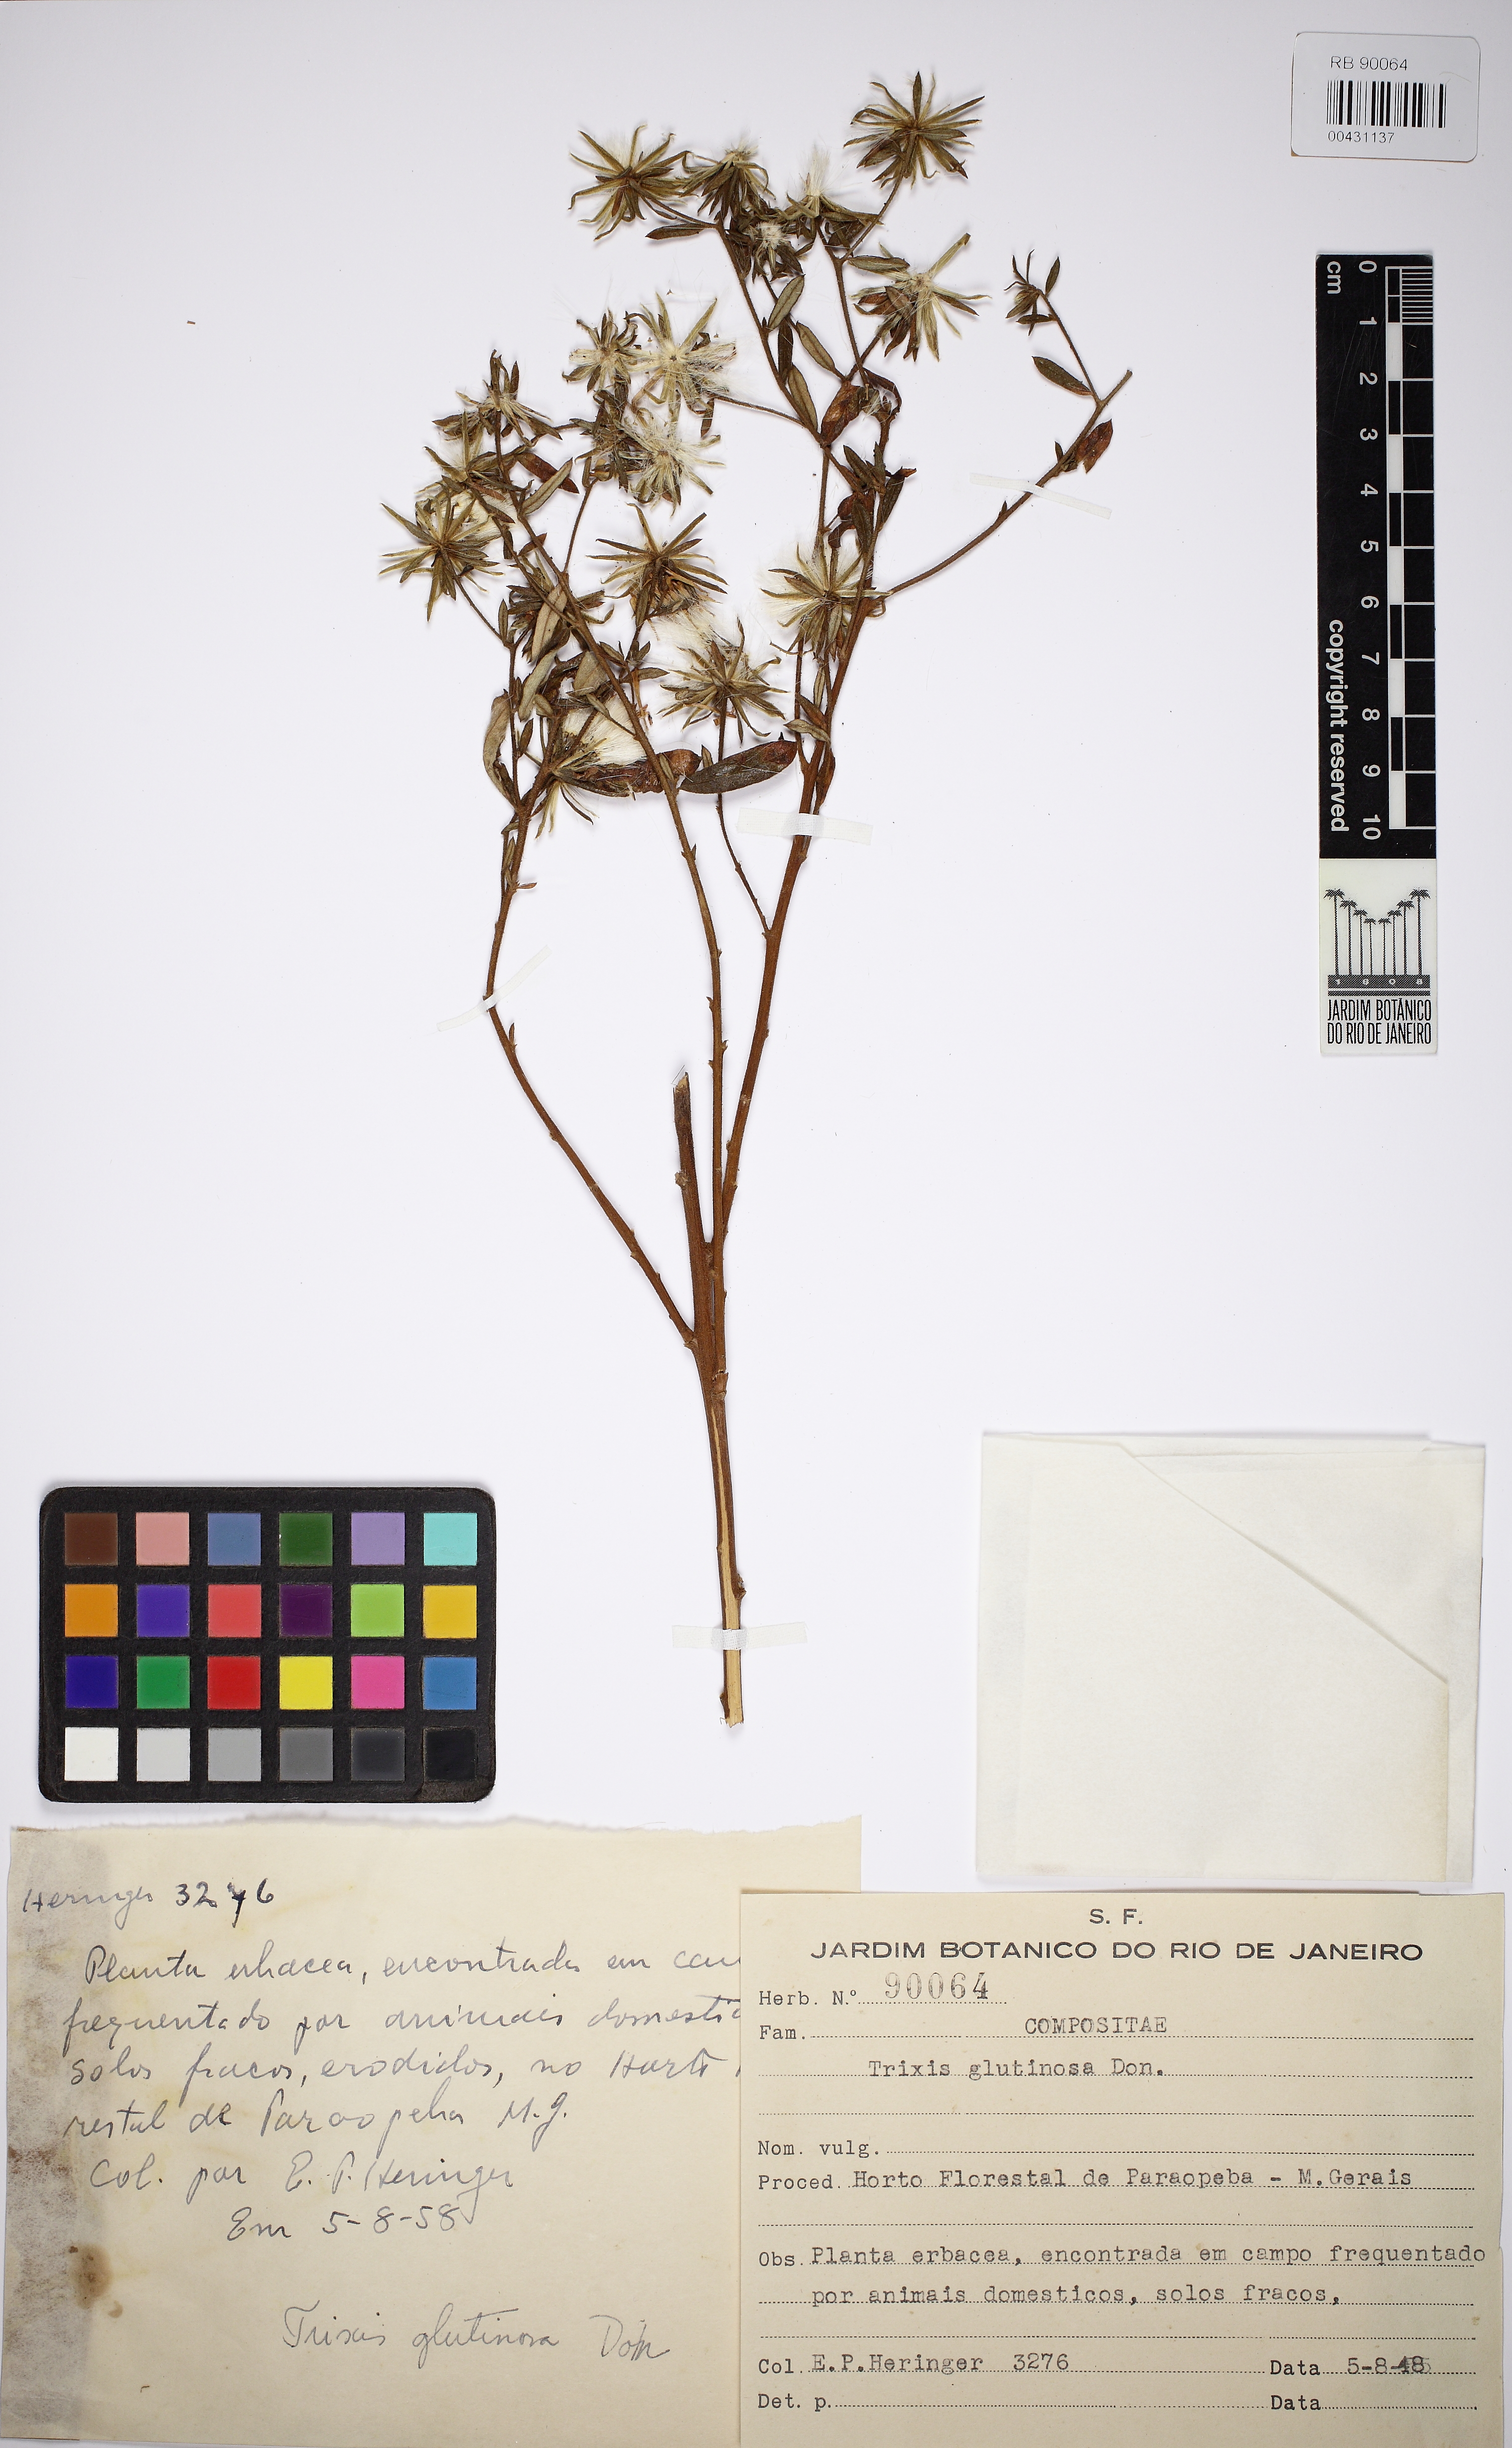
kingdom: Plantae
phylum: Tracheophyta
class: Magnoliopsida
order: Asterales
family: Asteraceae
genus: Trixis
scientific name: Trixis glutinosa
